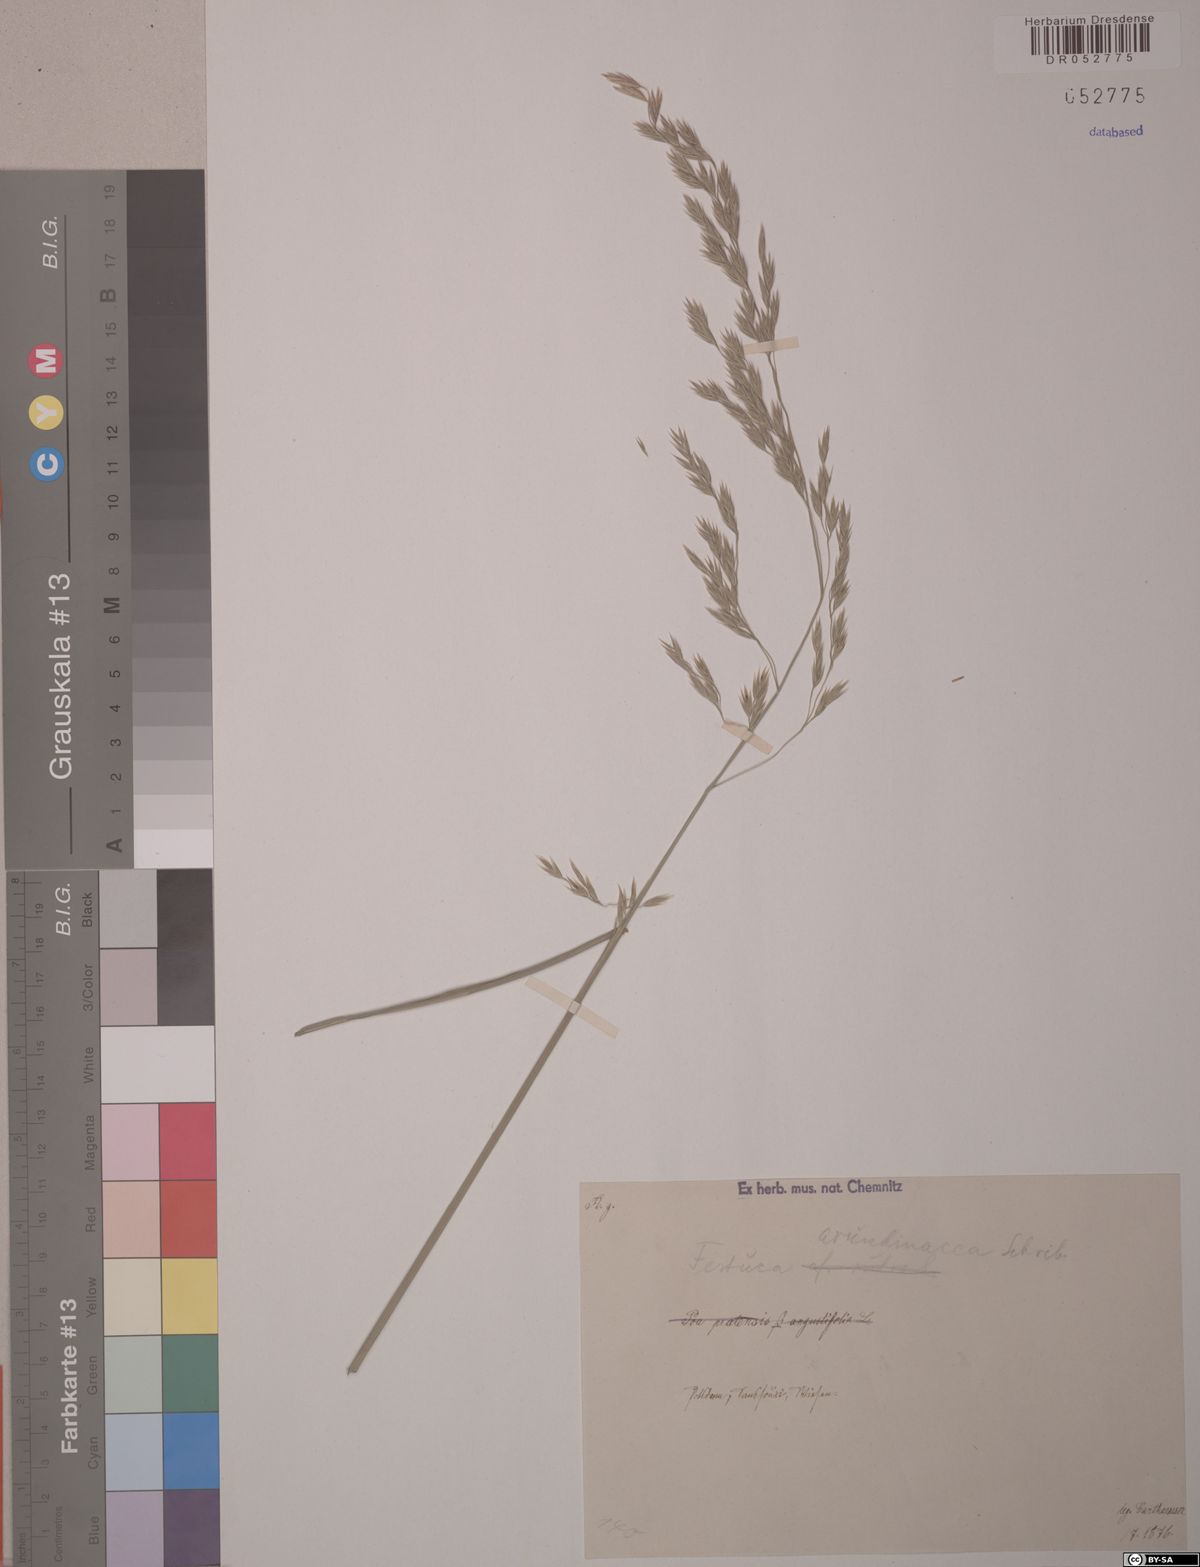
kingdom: Plantae
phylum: Tracheophyta
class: Liliopsida
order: Poales
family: Poaceae
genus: Lolium
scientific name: Lolium arundinaceum
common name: Reed fescue
